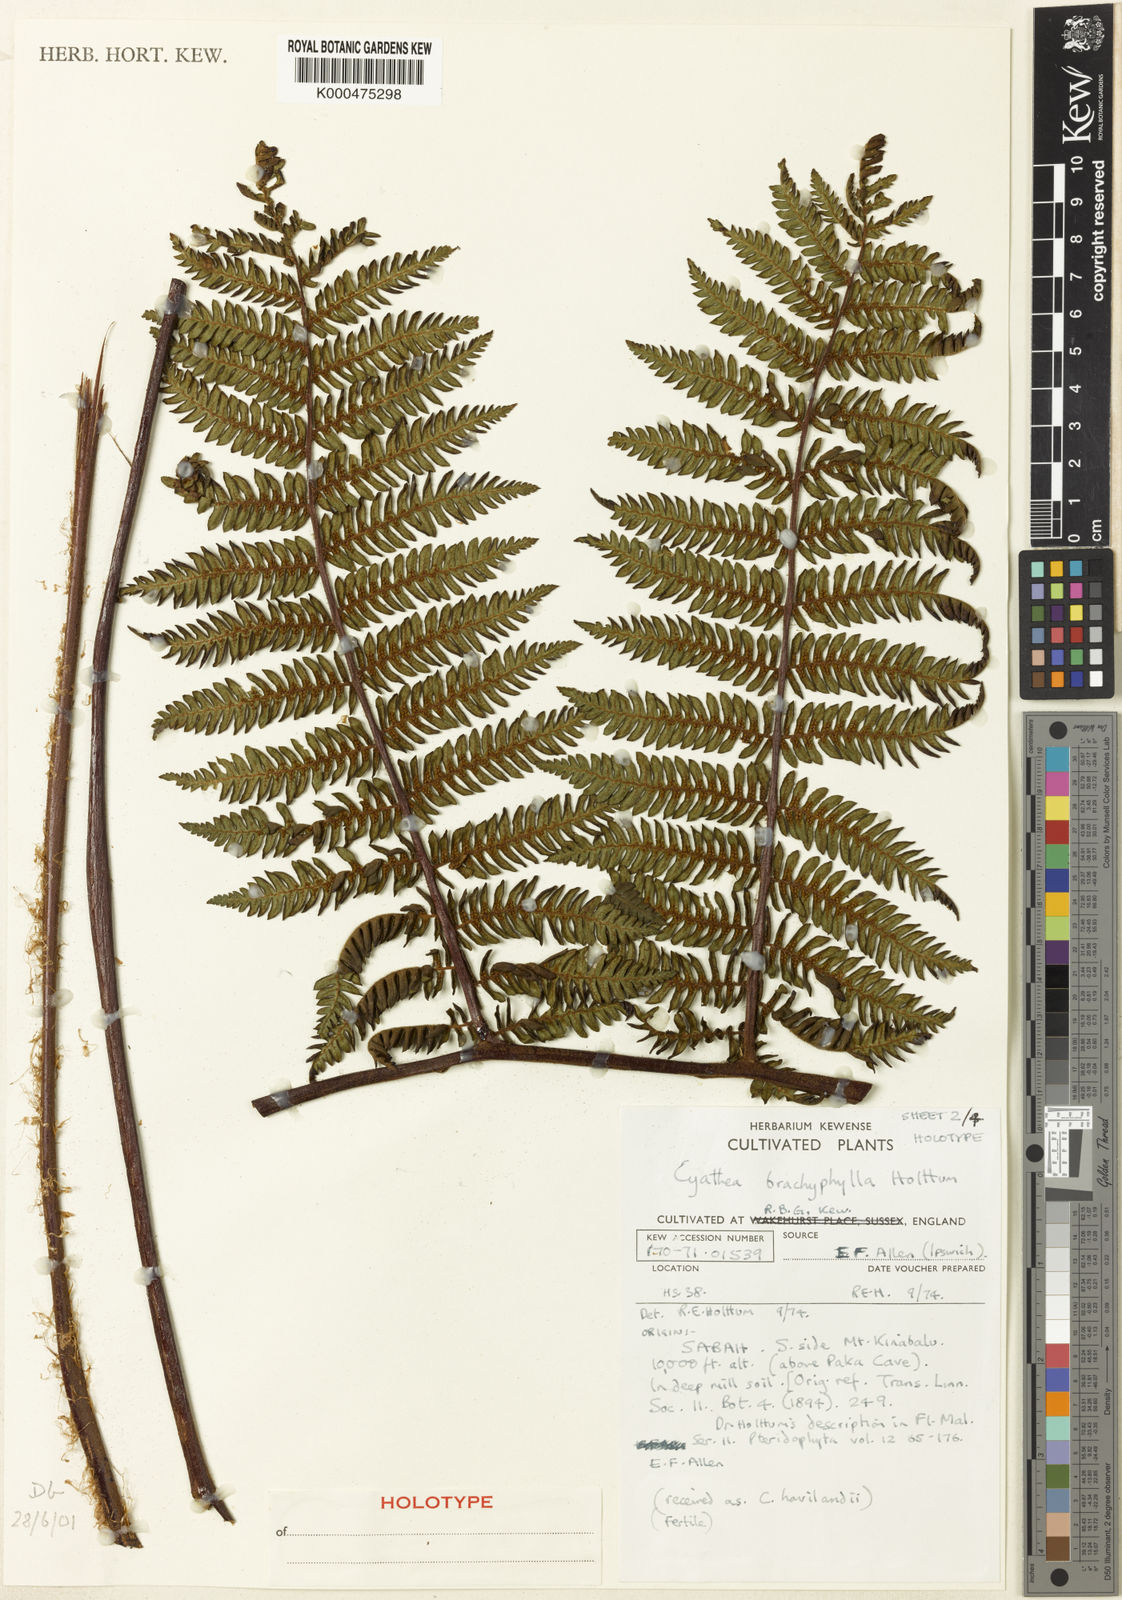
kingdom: Plantae
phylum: Tracheophyta
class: Polypodiopsida
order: Cyatheales
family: Cyatheaceae
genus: Alsophila
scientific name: Alsophila brachyphylla
